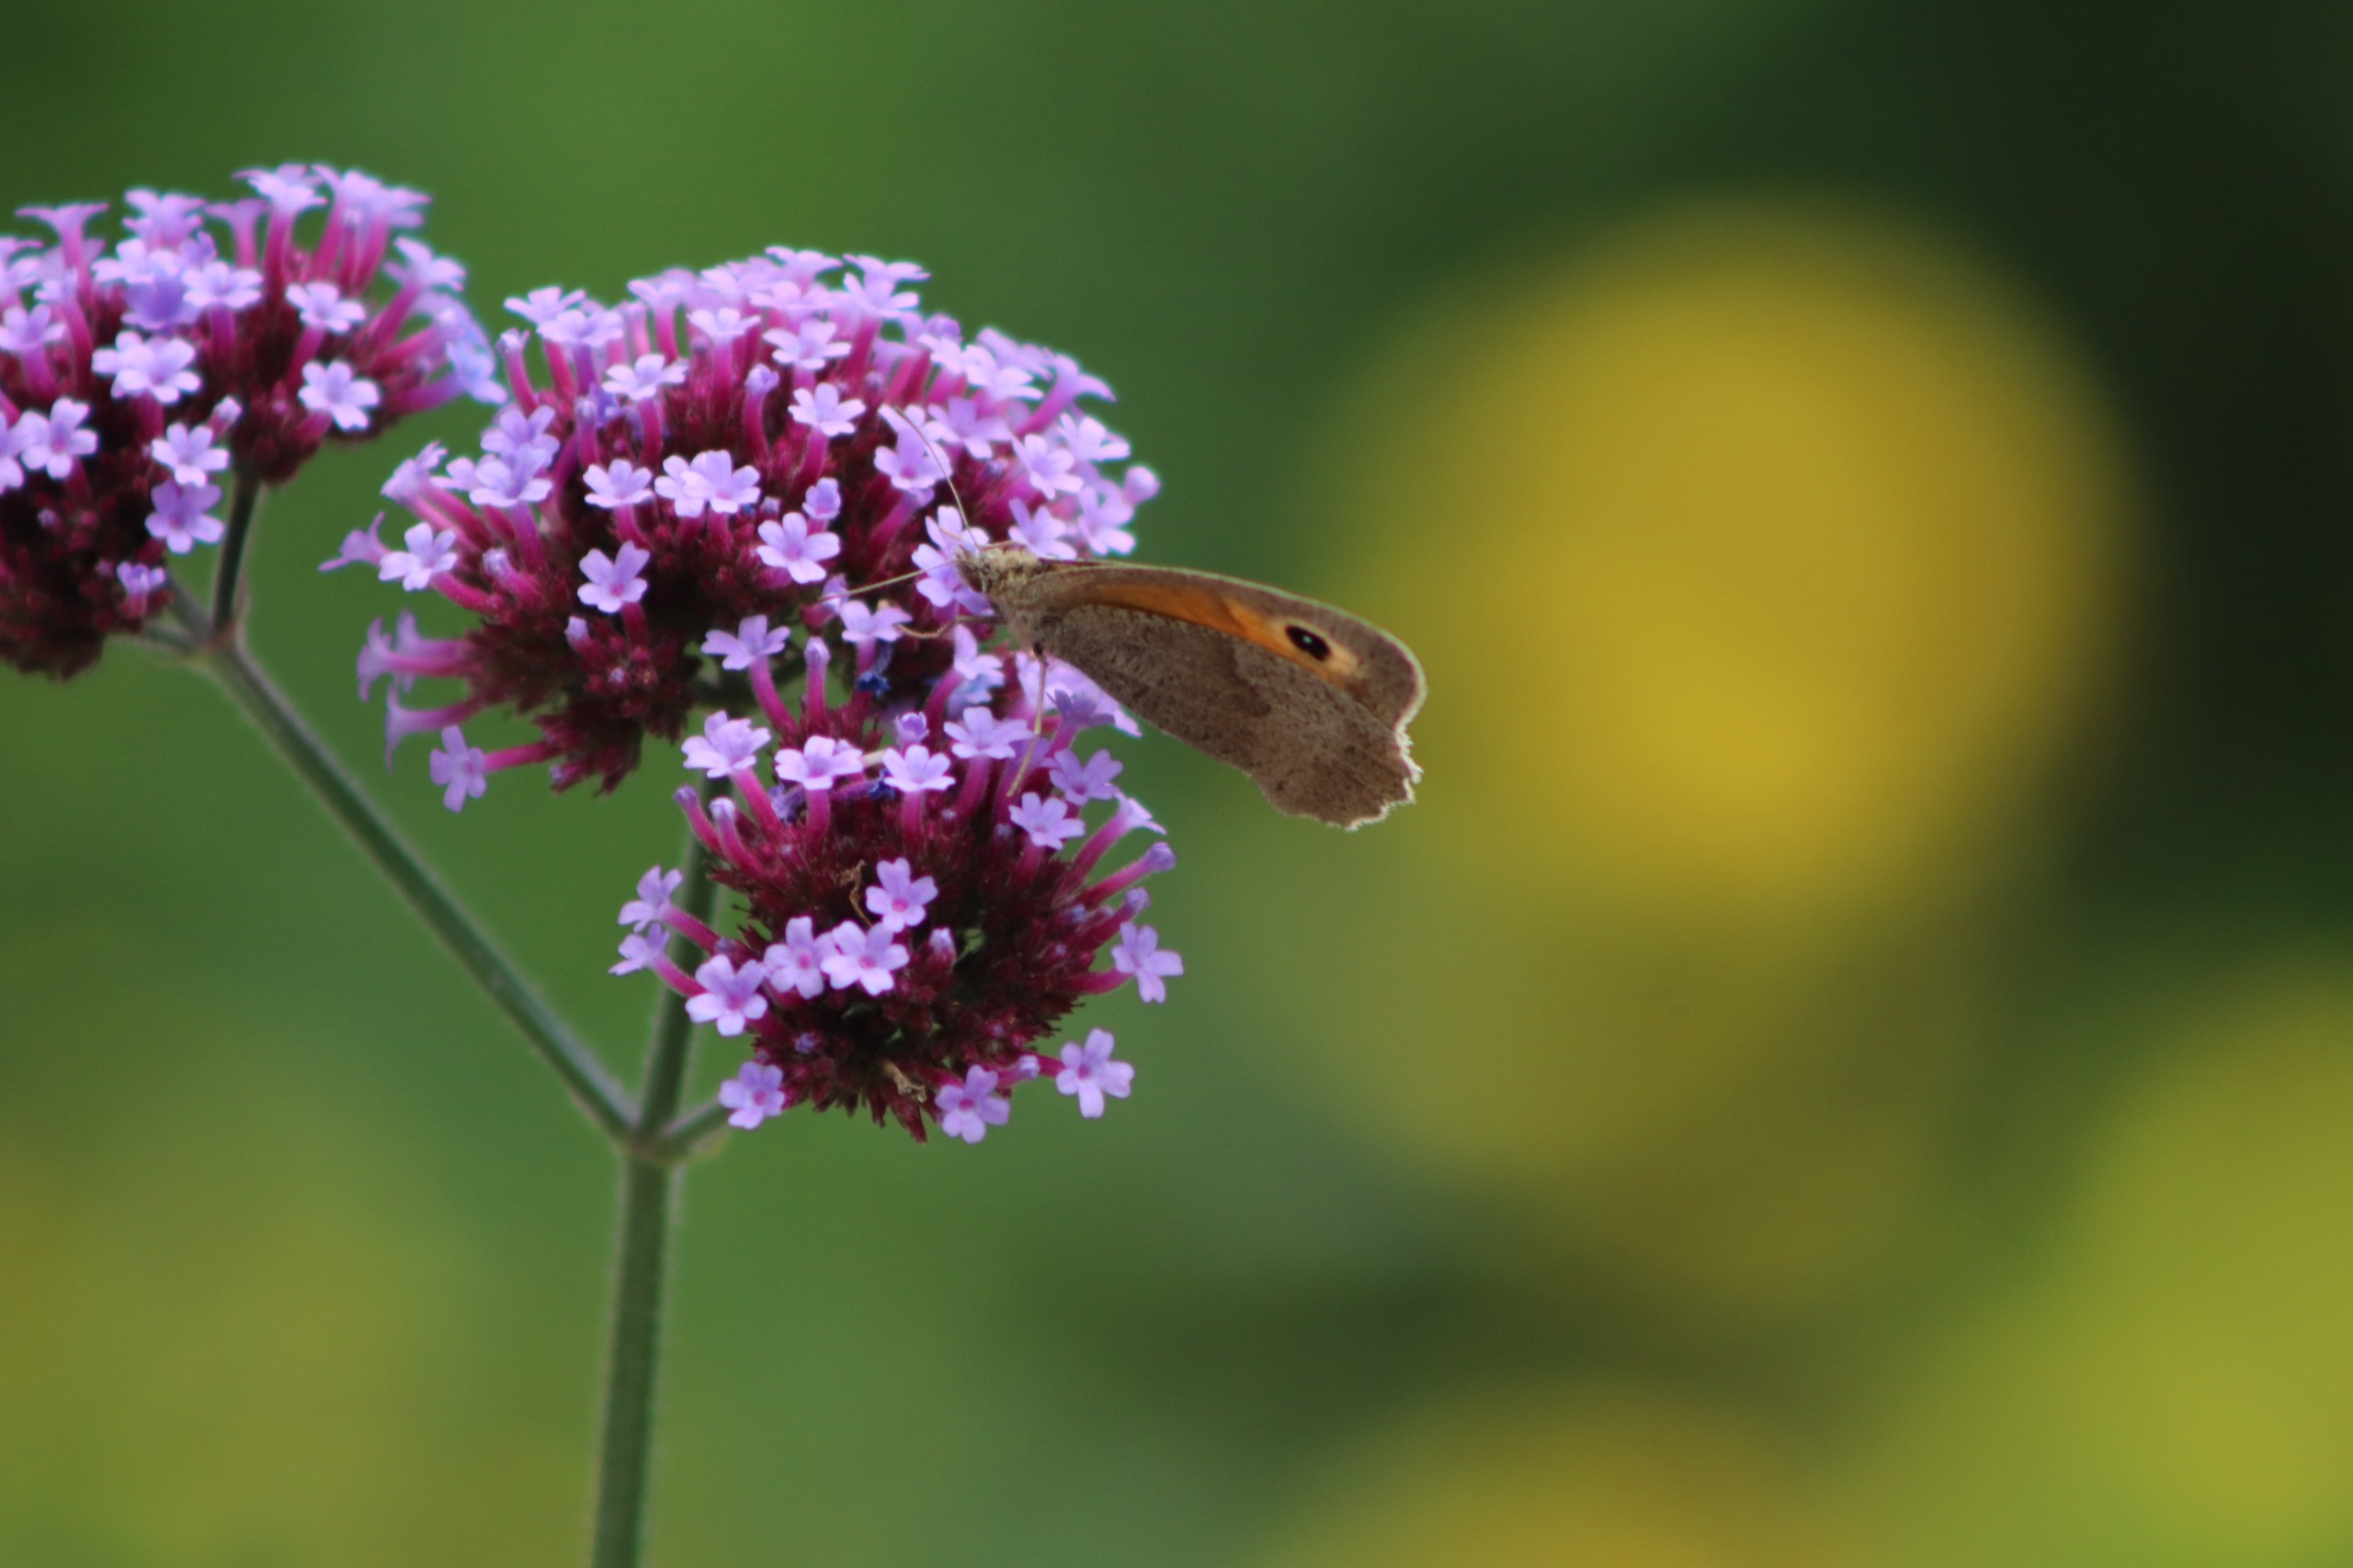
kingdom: Animalia
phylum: Arthropoda
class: Insecta
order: Lepidoptera
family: Nymphalidae
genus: Maniola
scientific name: Maniola jurtina
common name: Græsrandøje
